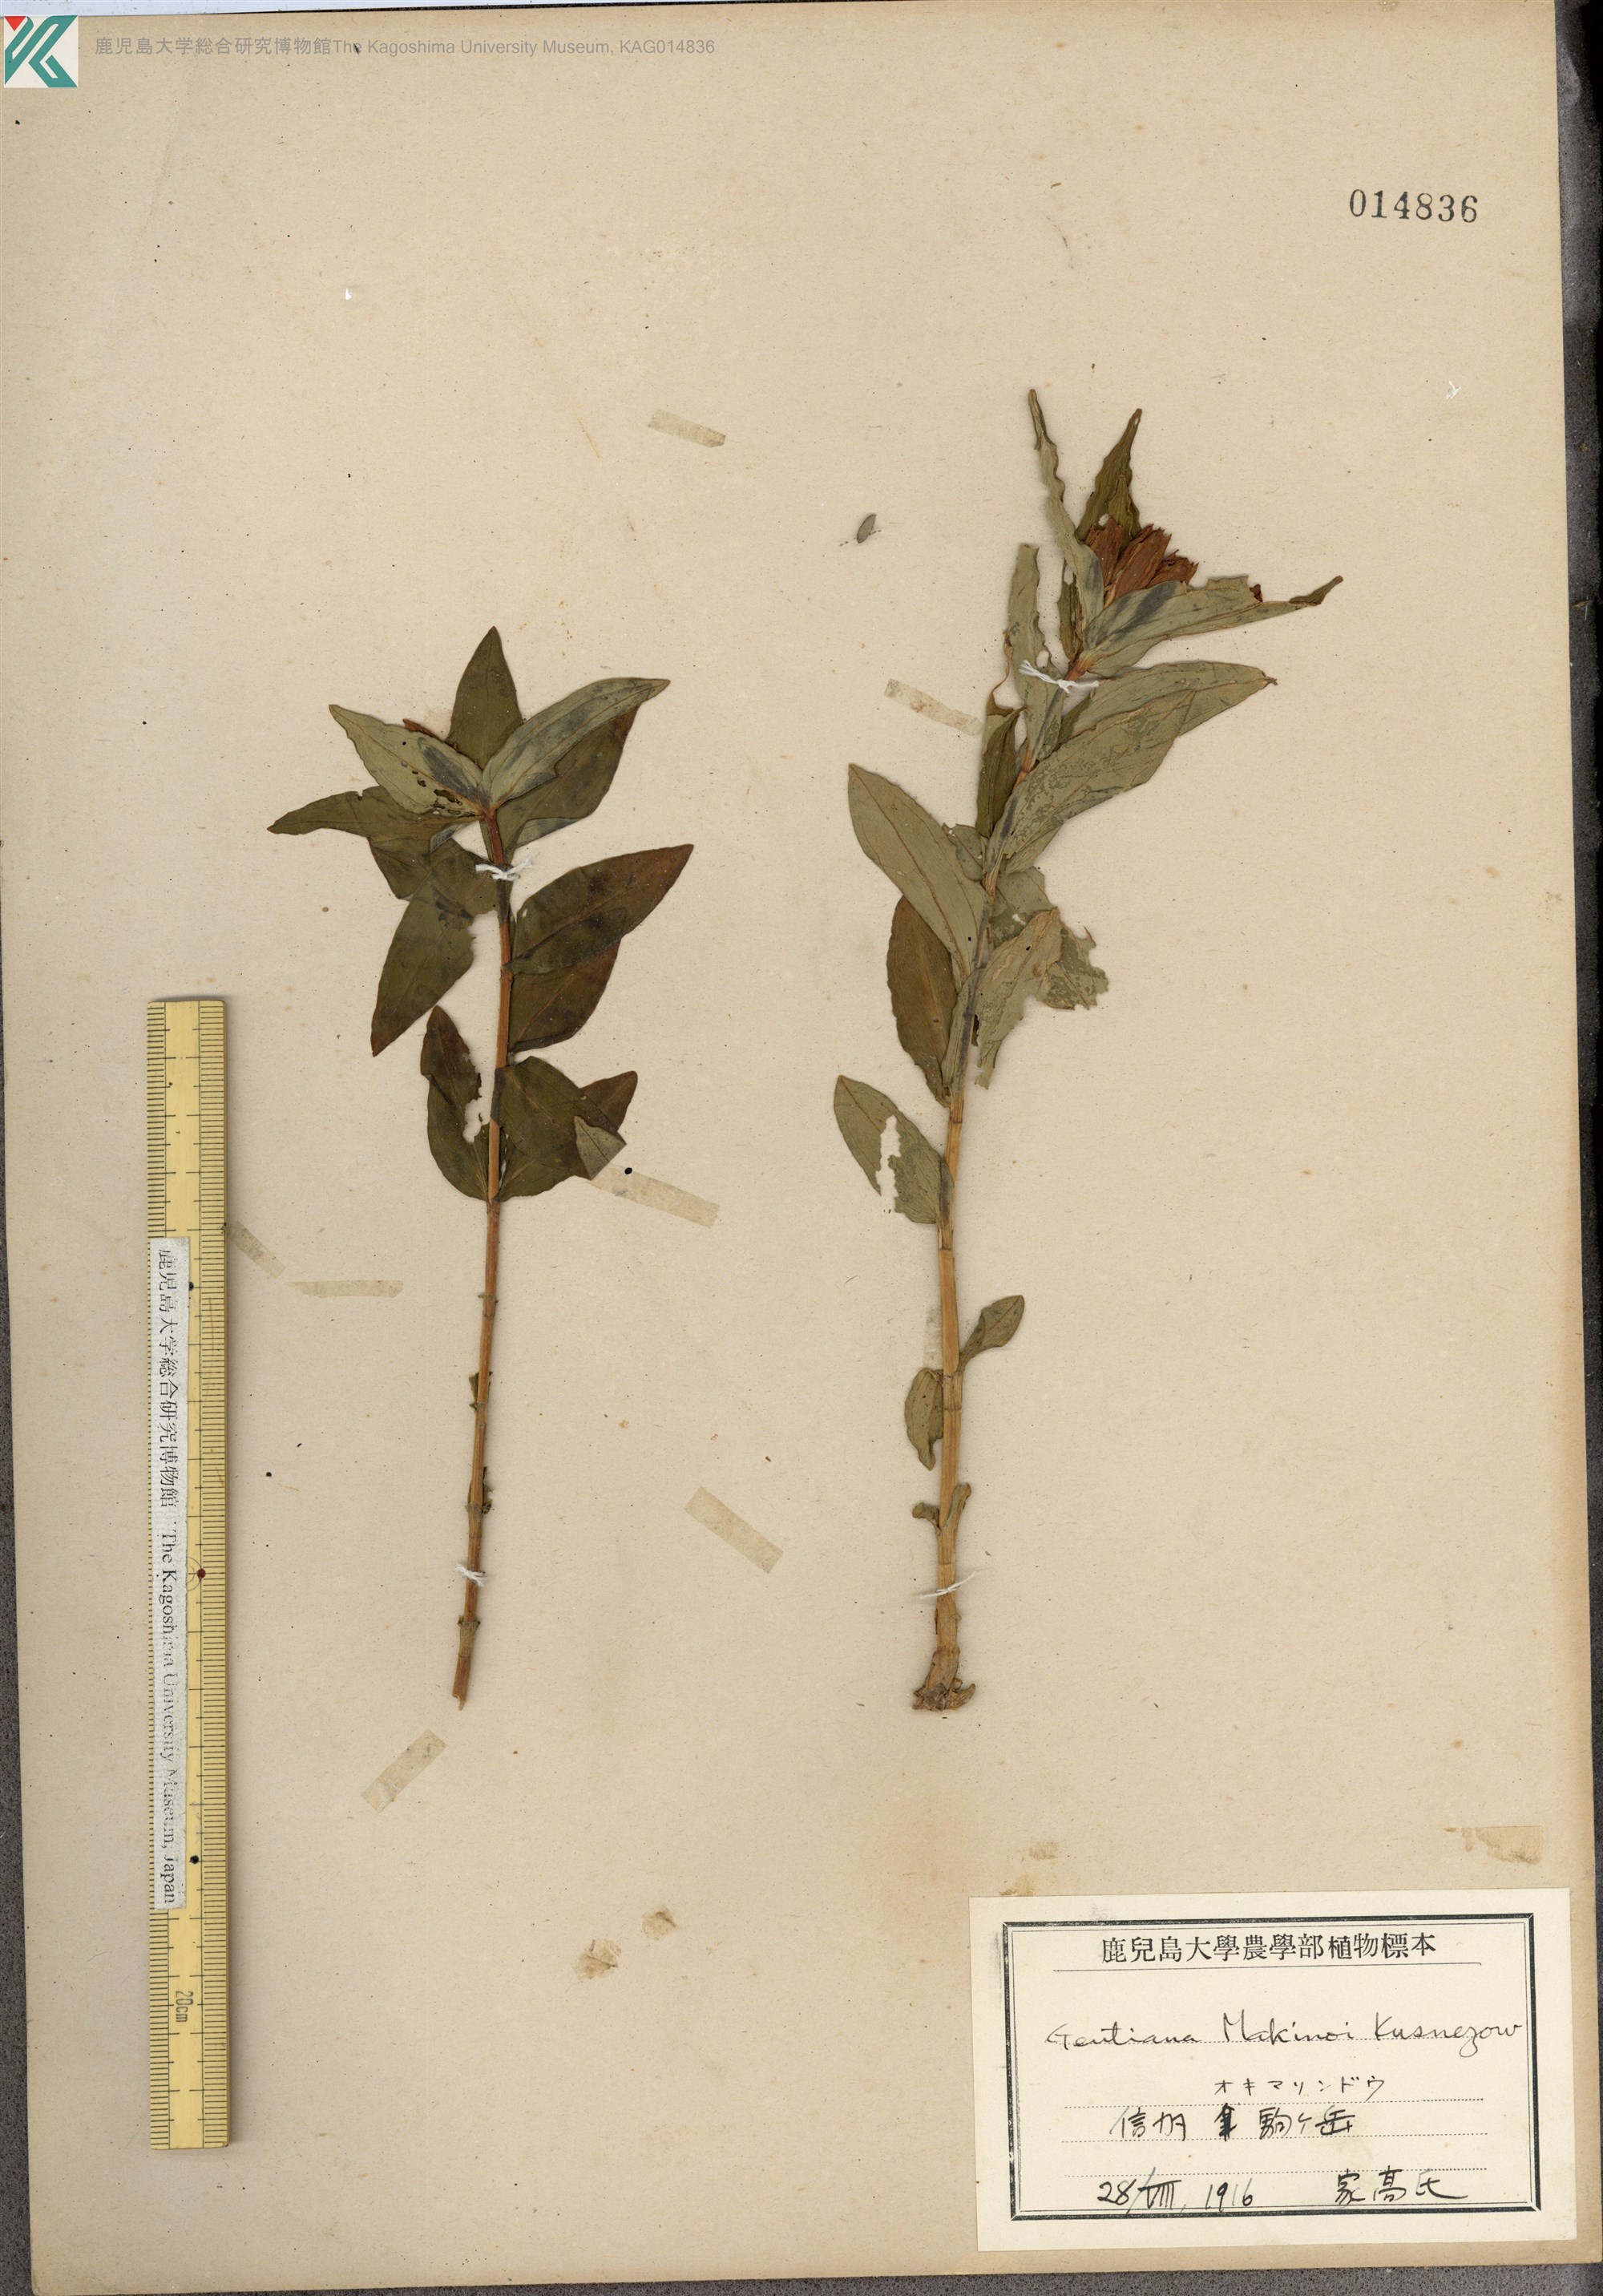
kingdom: Plantae
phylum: Tracheophyta
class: Magnoliopsida
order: Gentianales
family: Gentianaceae
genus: Gentiana
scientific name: Gentiana makinoi
